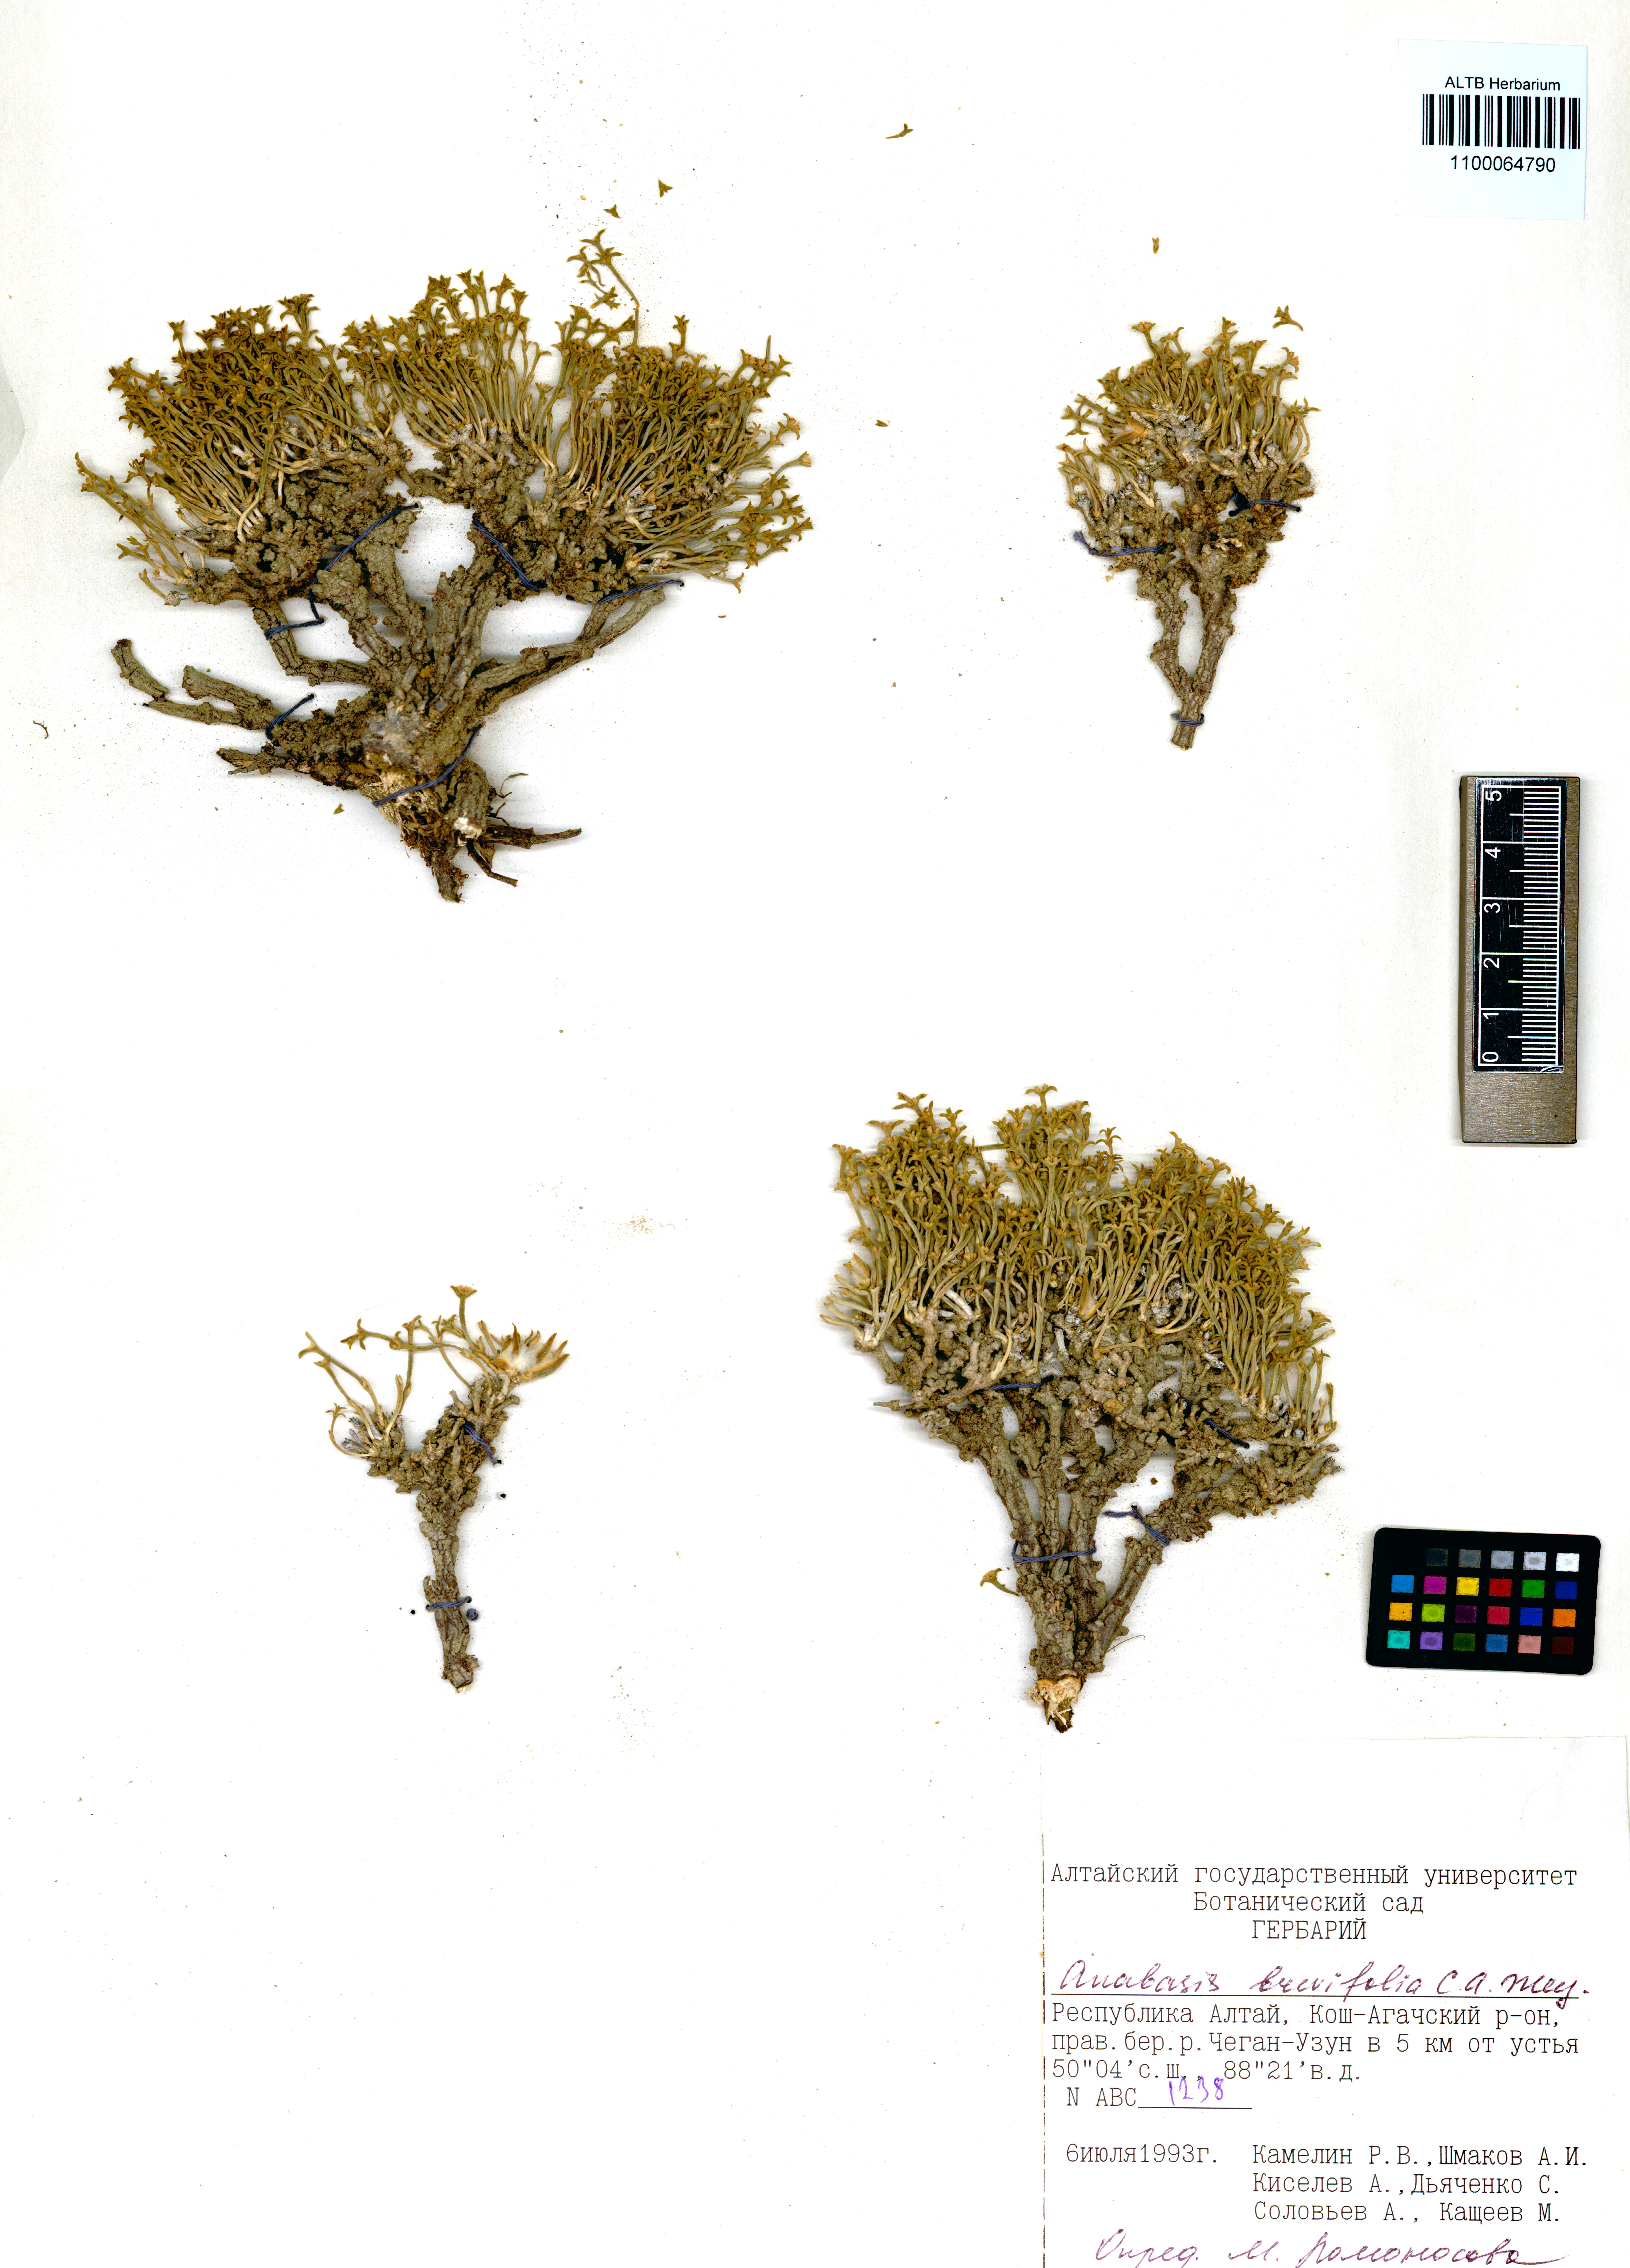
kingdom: Plantae
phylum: Tracheophyta
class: Magnoliopsida
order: Caryophyllales
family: Amaranthaceae
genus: Anabasis
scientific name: Anabasis brevifolia
